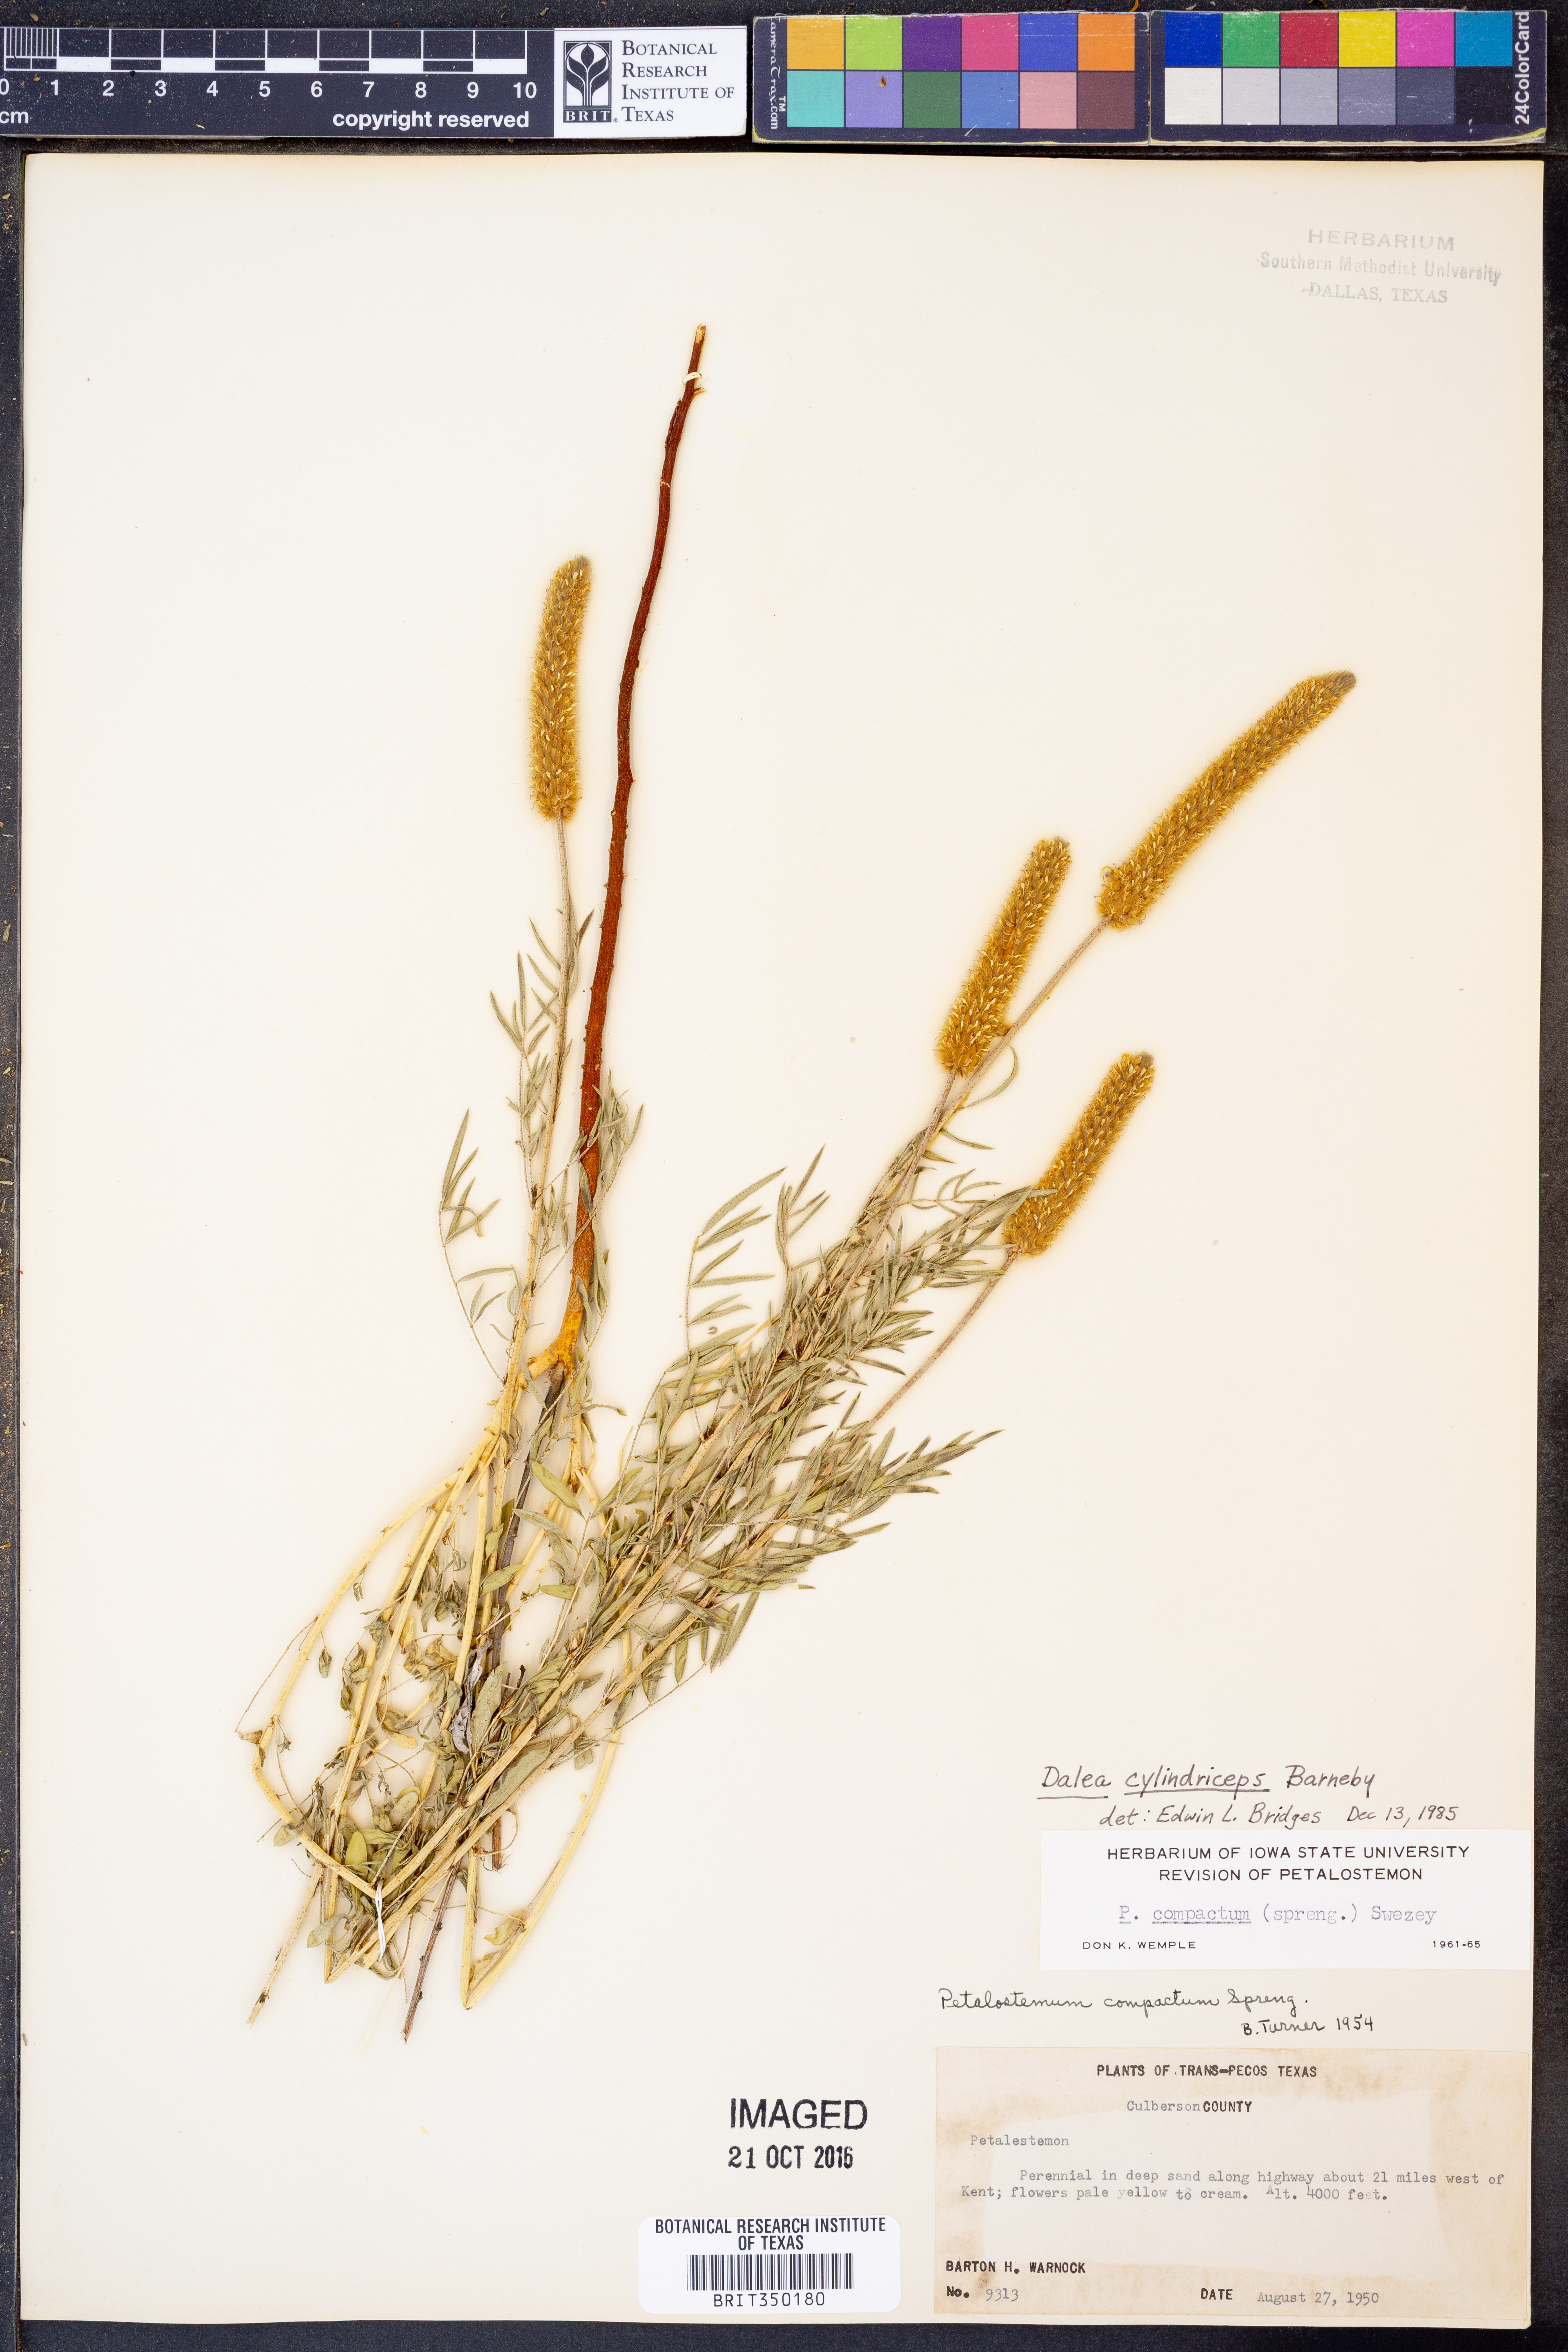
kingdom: Plantae
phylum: Tracheophyta
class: Magnoliopsida
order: Fabales
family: Fabaceae
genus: Dalea
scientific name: Dalea cylindriceps
